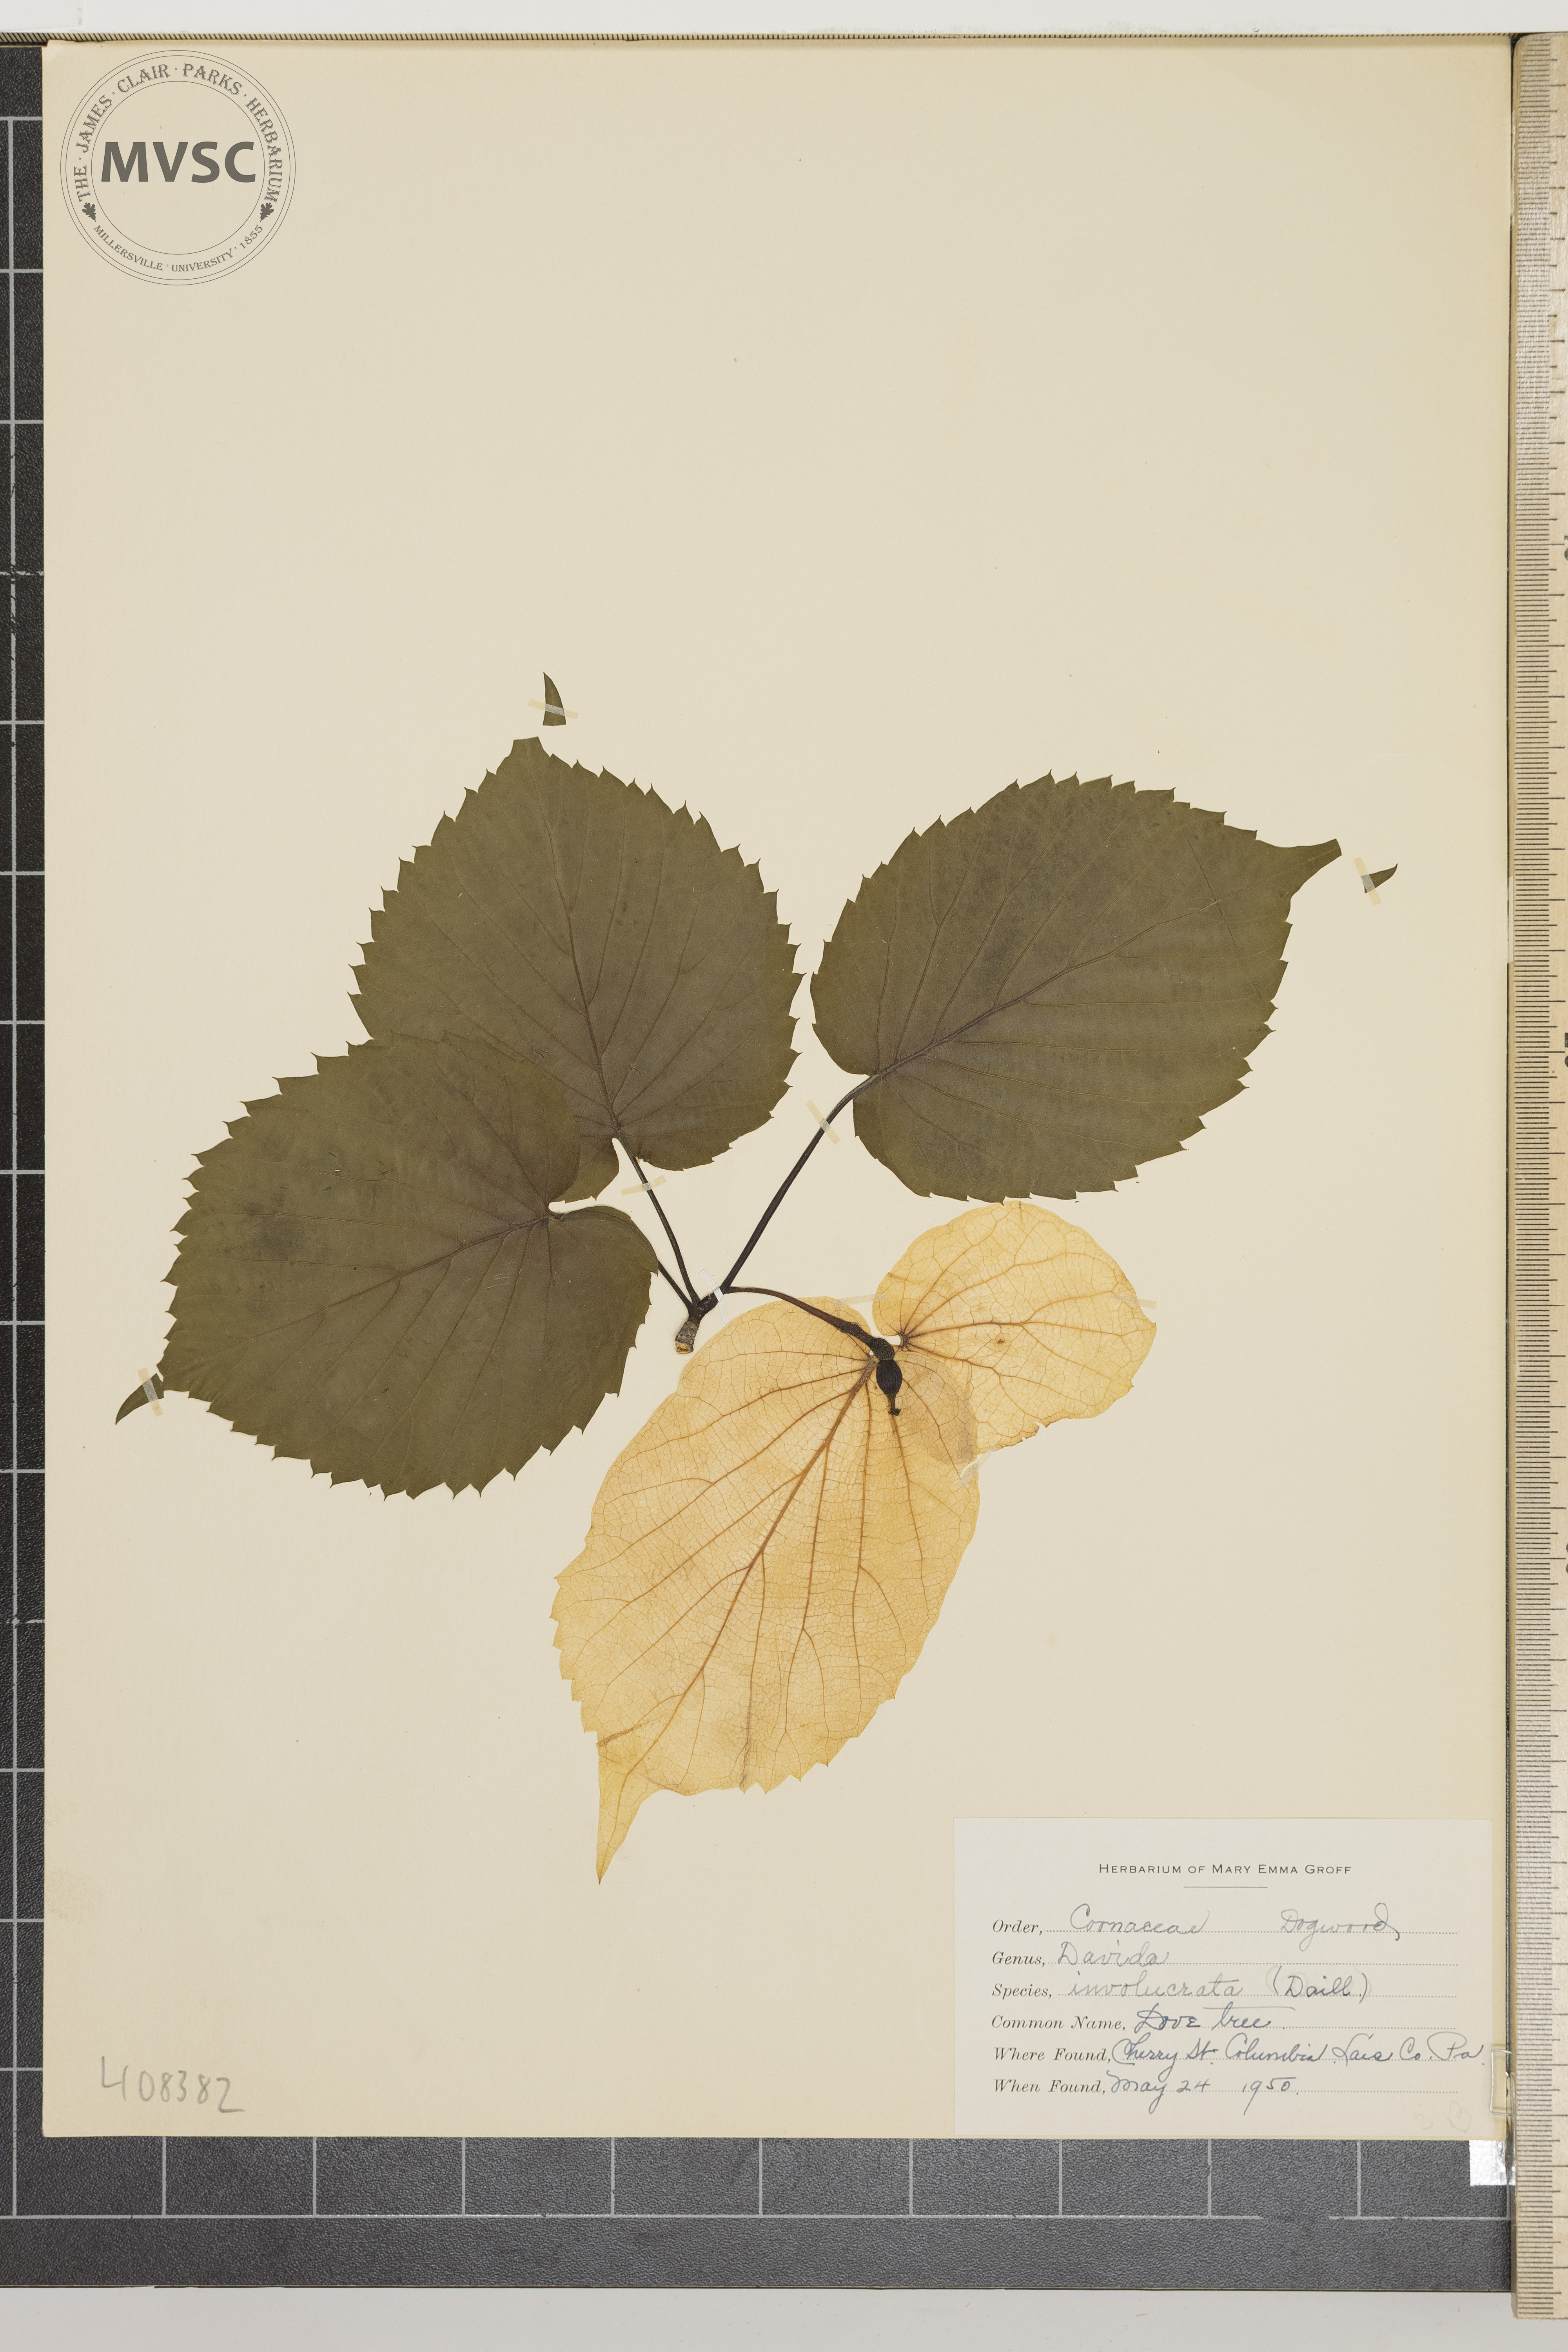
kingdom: Plantae
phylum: Tracheophyta
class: Magnoliopsida
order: Cornales
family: Nyssaceae
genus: Davidia
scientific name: Davidia involucrata
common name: Dove Tree
